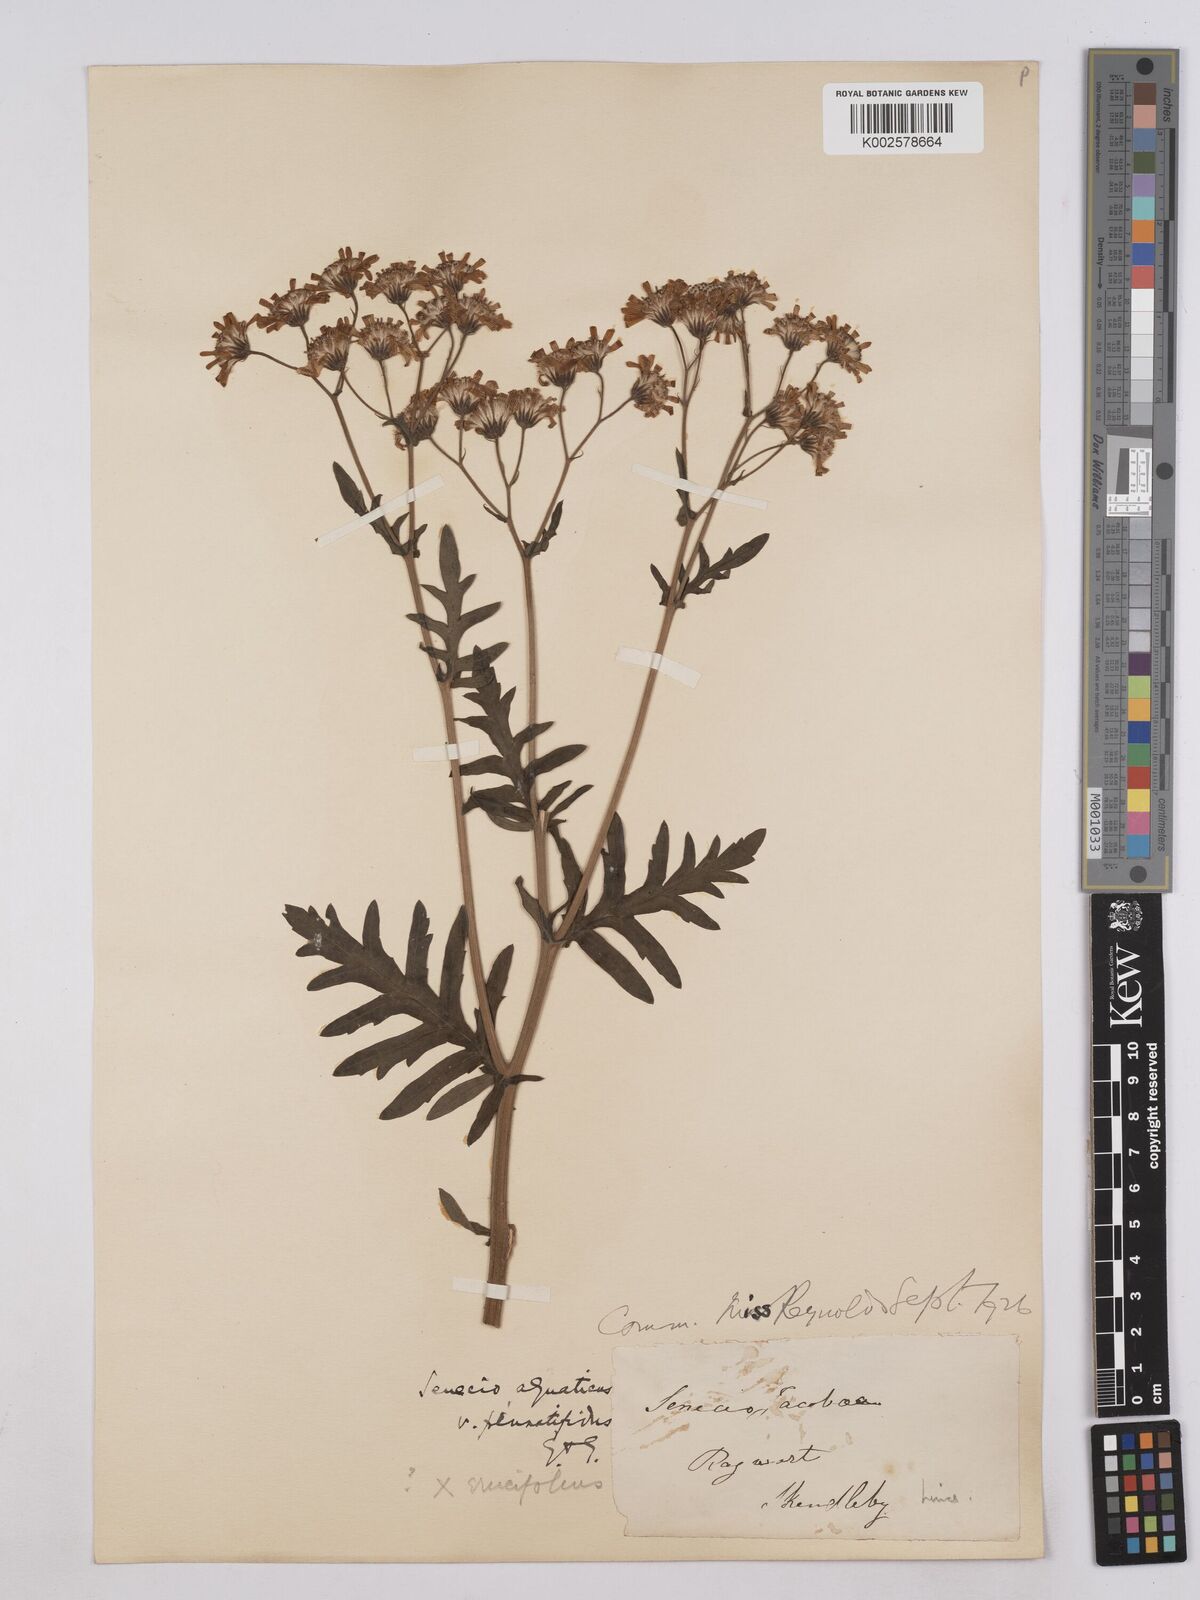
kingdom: Plantae
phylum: Tracheophyta
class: Magnoliopsida
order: Asterales
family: Asteraceae
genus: Jacobaea
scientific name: Jacobaea aquatica
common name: Water ragwort
